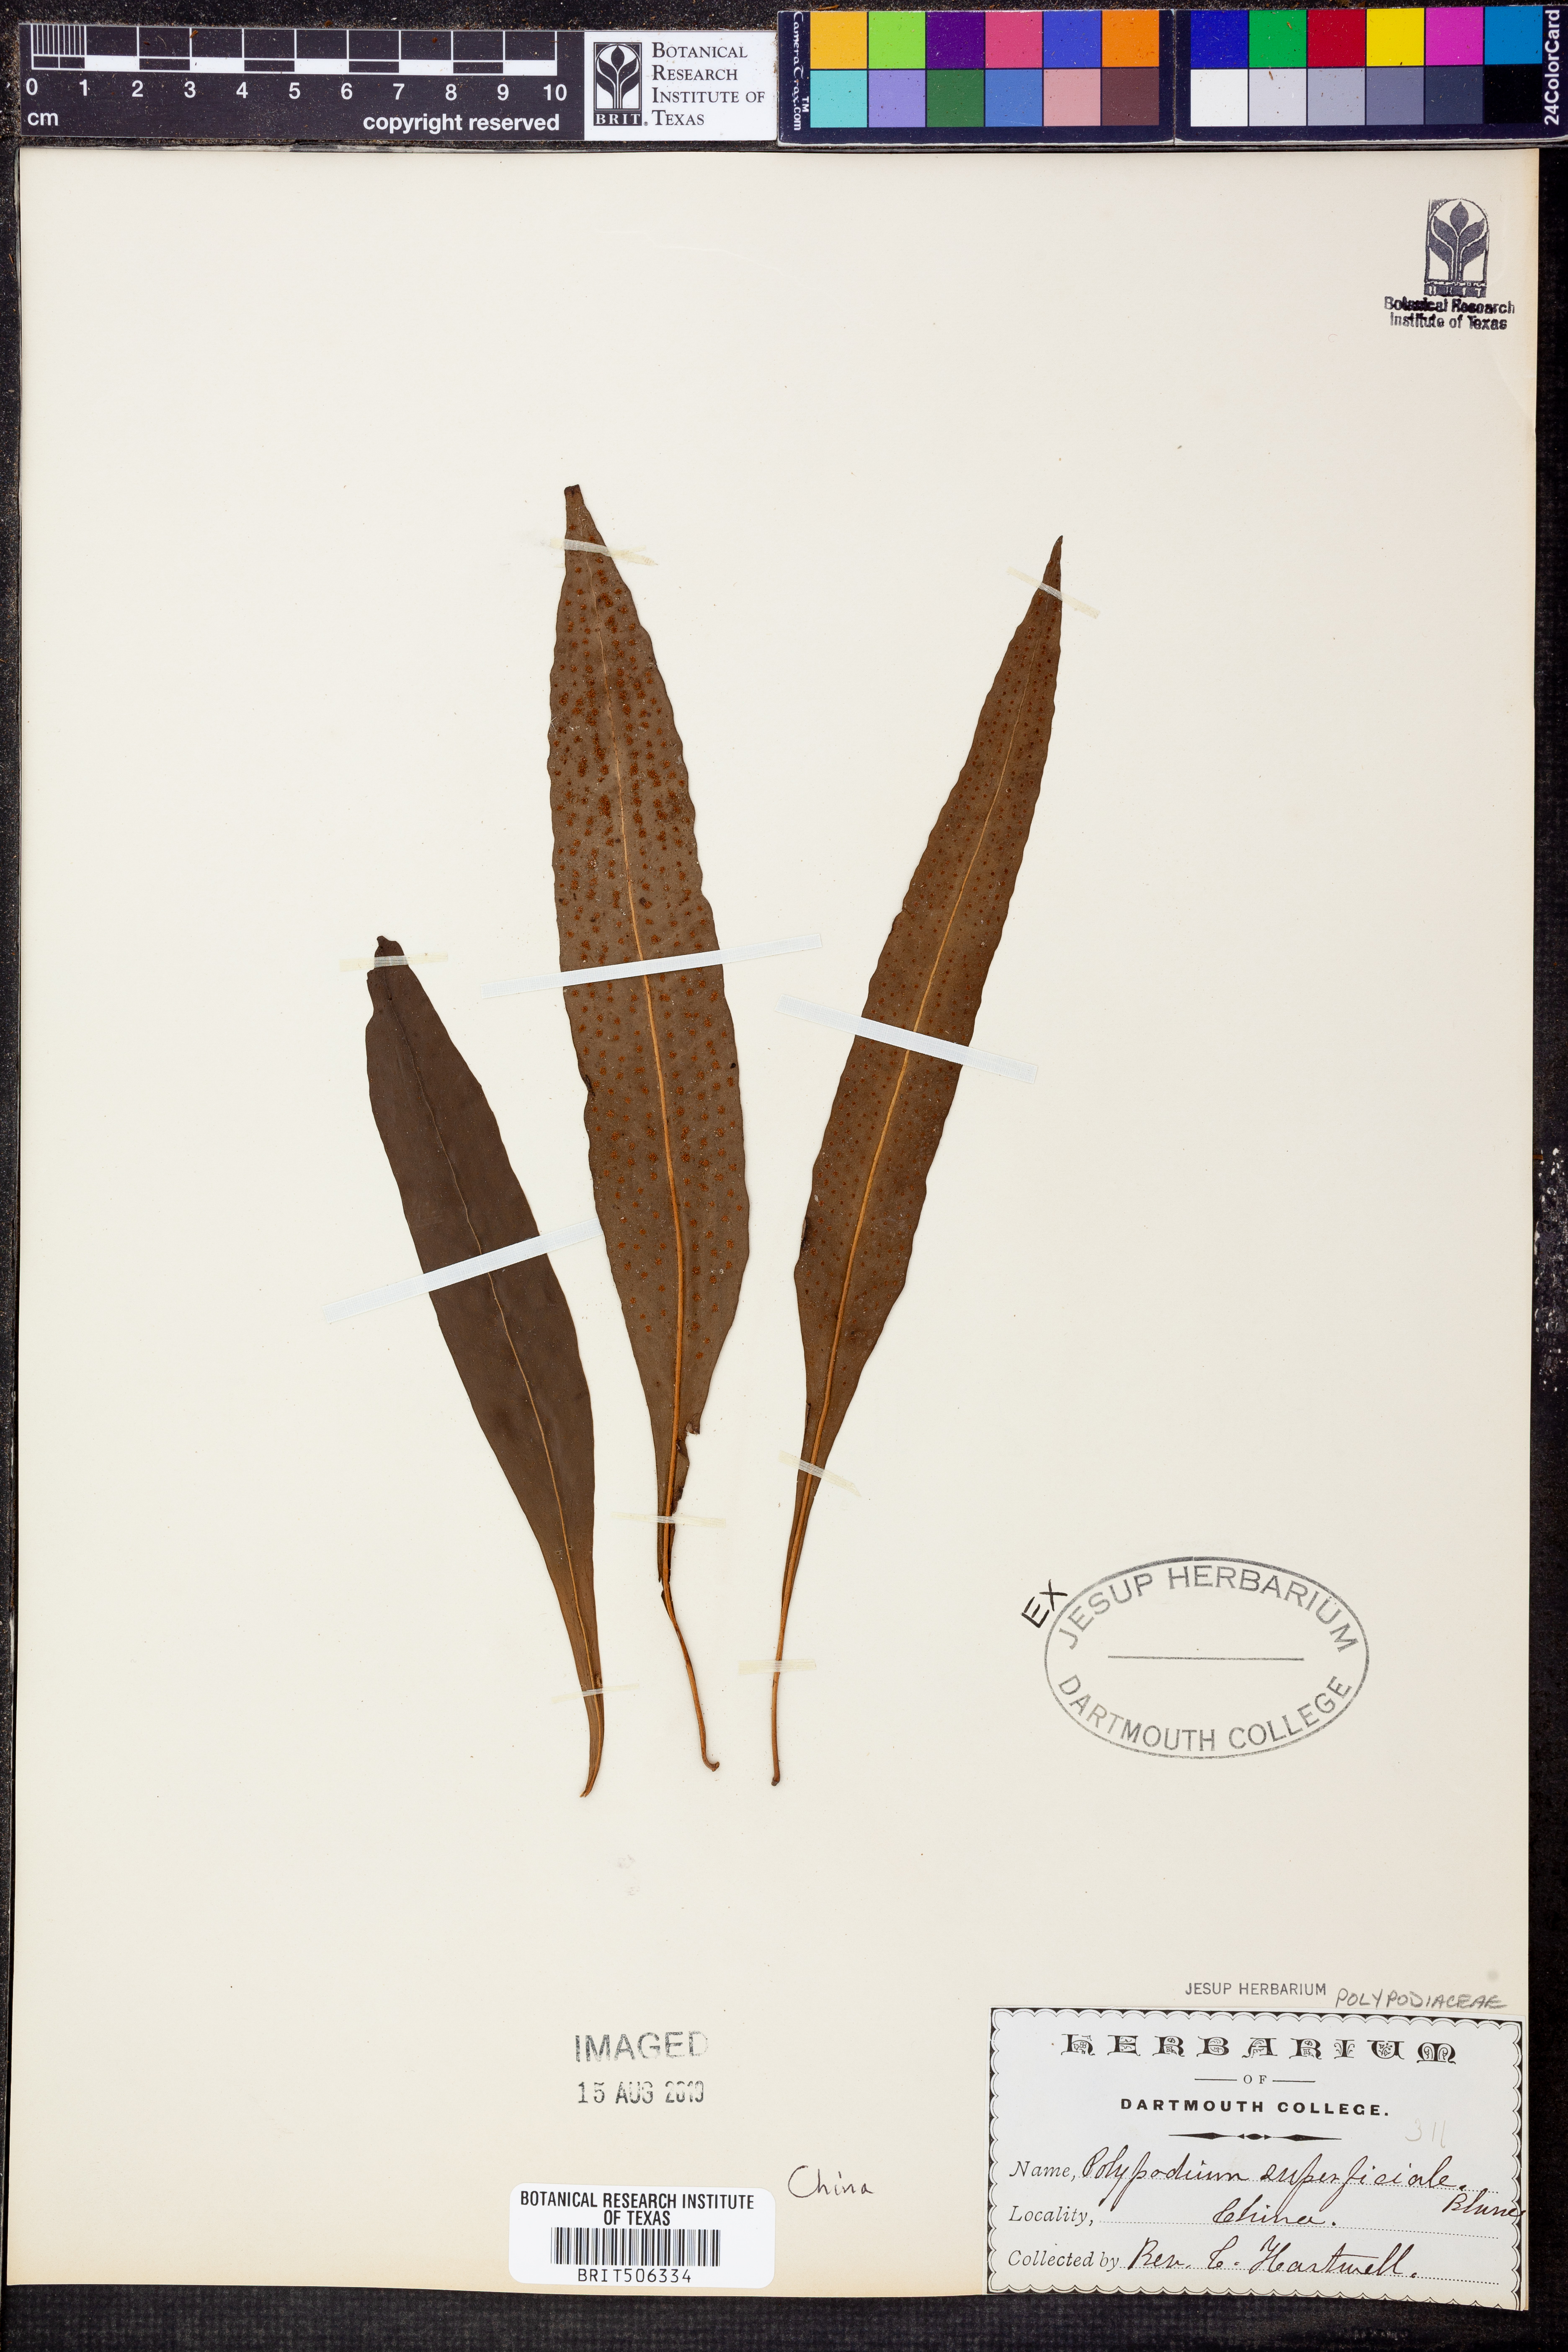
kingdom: Plantae
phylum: Tracheophyta
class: Polypodiopsida
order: Polypodiales
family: Polypodiaceae
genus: Lepisorus
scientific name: Lepisorus superficialis
